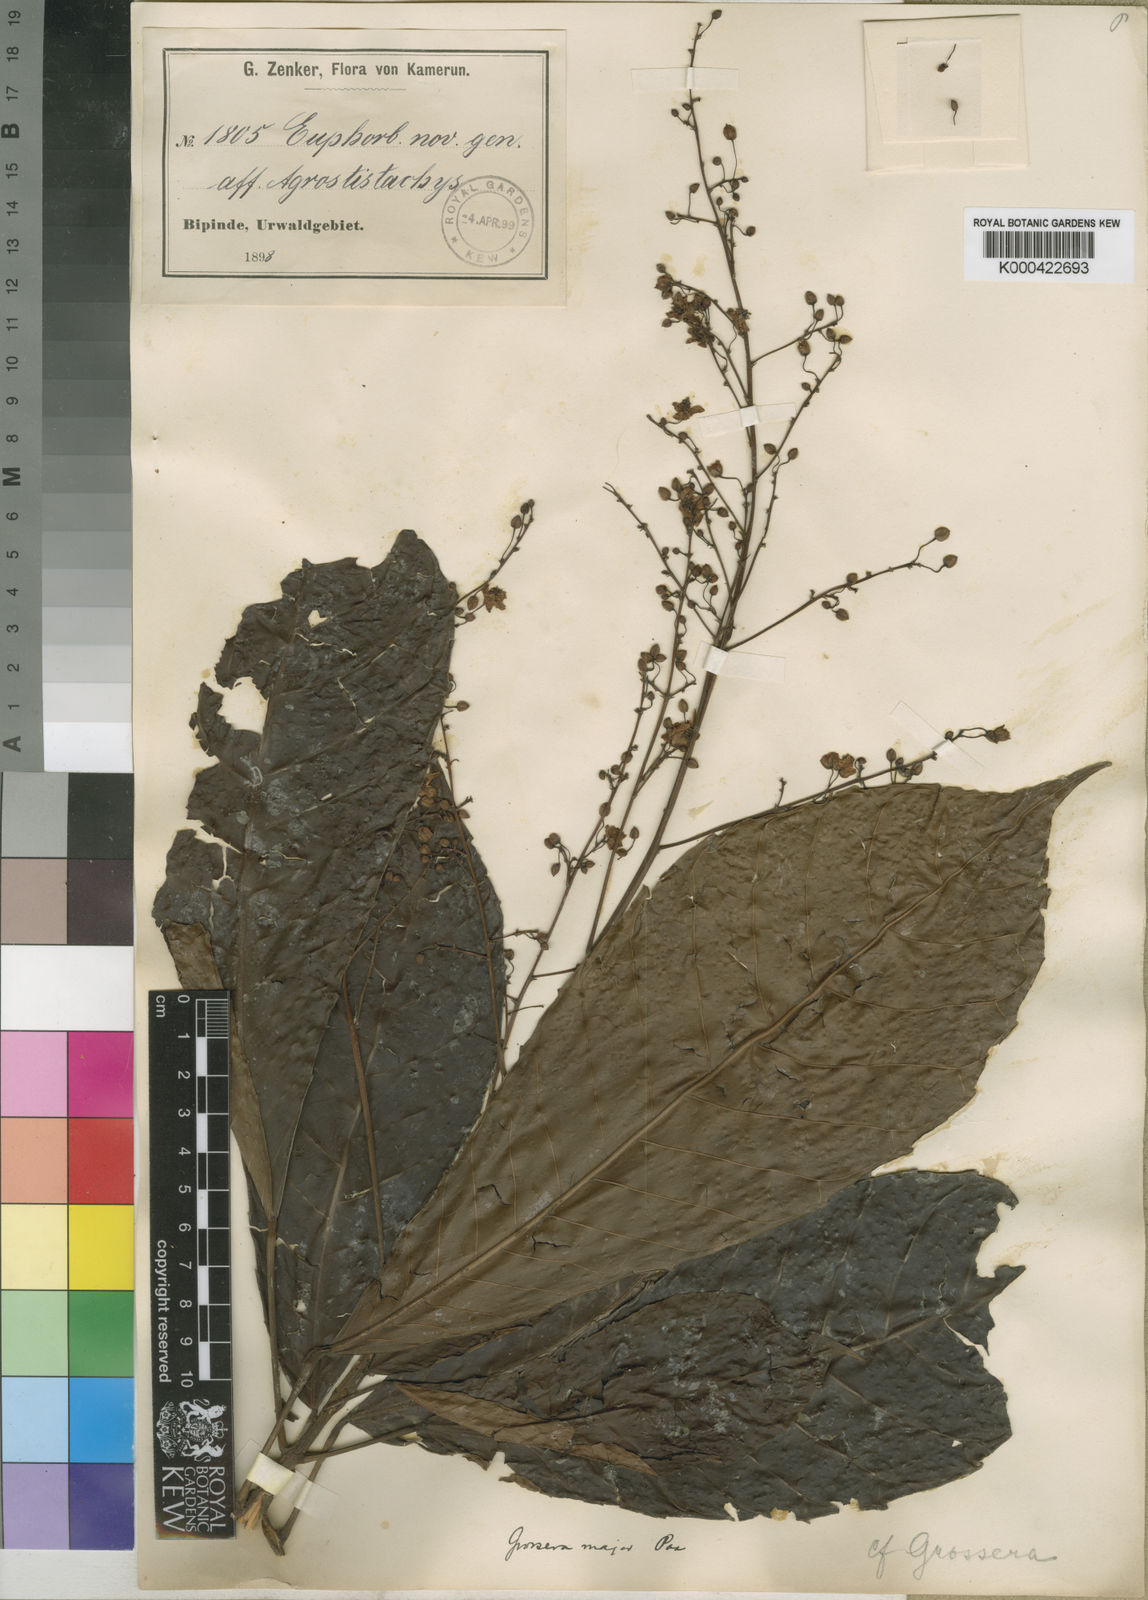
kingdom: Plantae
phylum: Tracheophyta
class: Magnoliopsida
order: Malpighiales
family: Euphorbiaceae
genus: Grossera
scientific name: Grossera major
